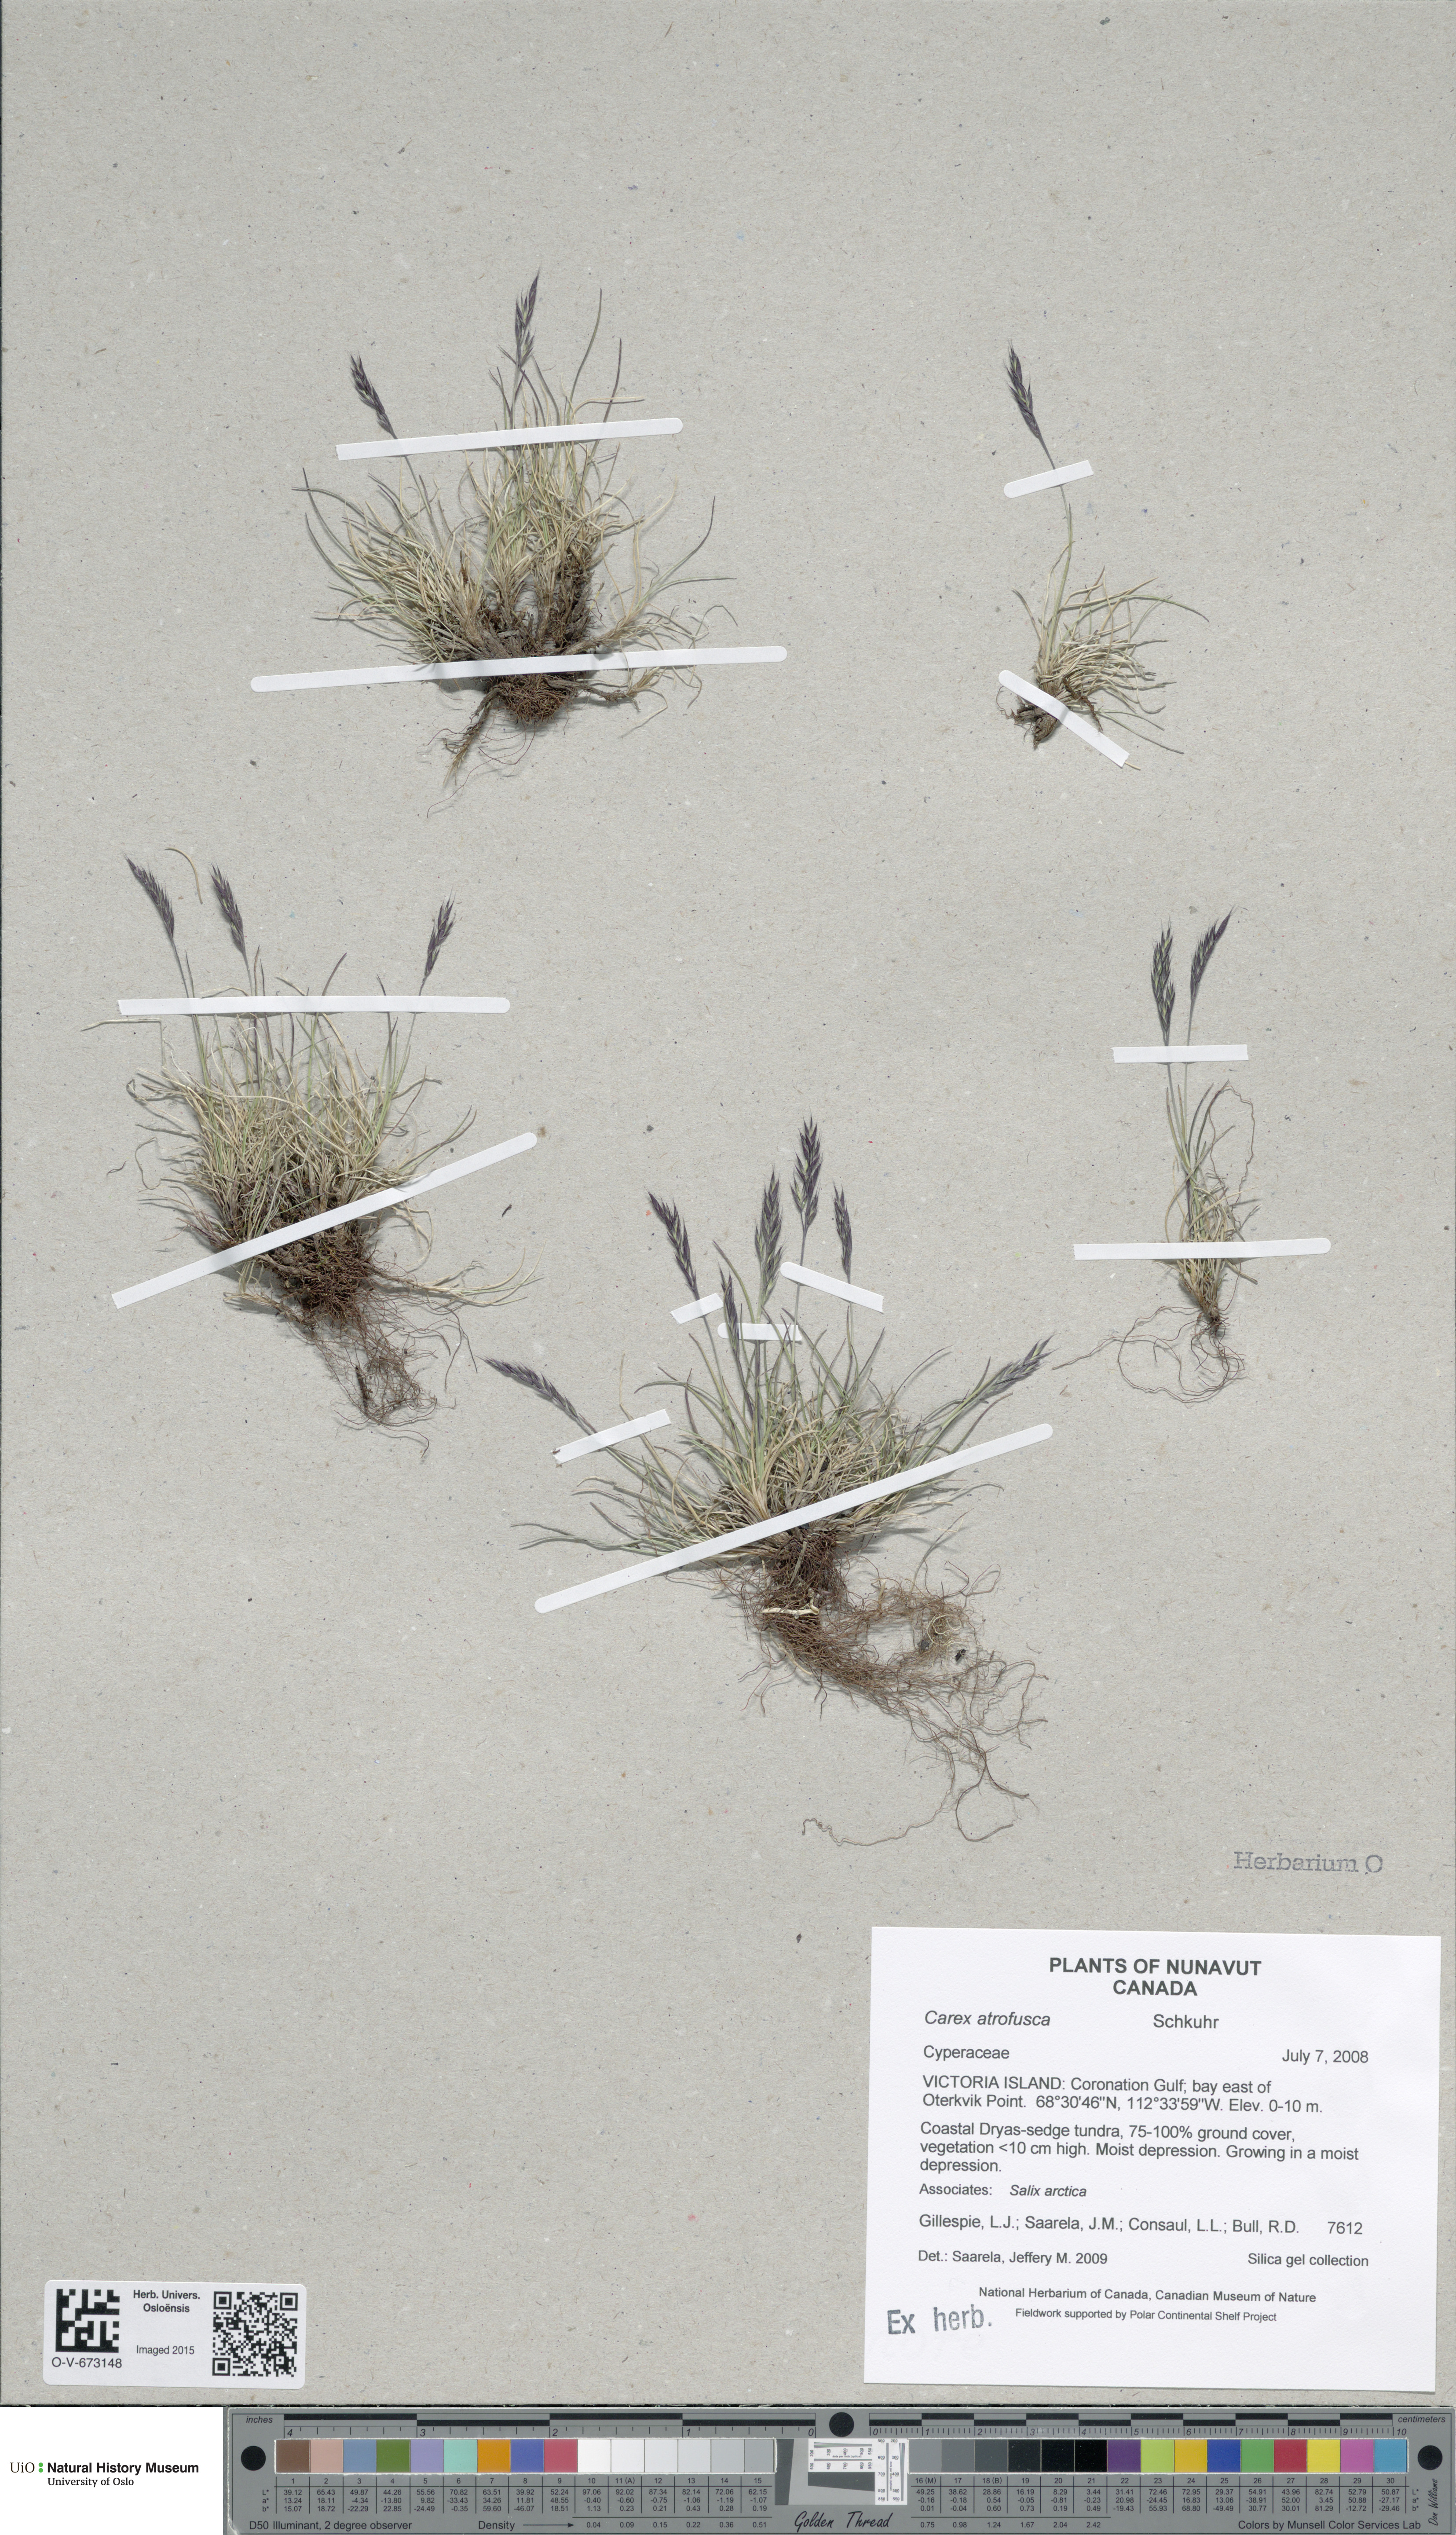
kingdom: Plantae
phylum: Tracheophyta
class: Liliopsida
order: Poales
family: Cyperaceae
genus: Carex
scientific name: Carex atrofusca
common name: Scorched alpine-sedge
